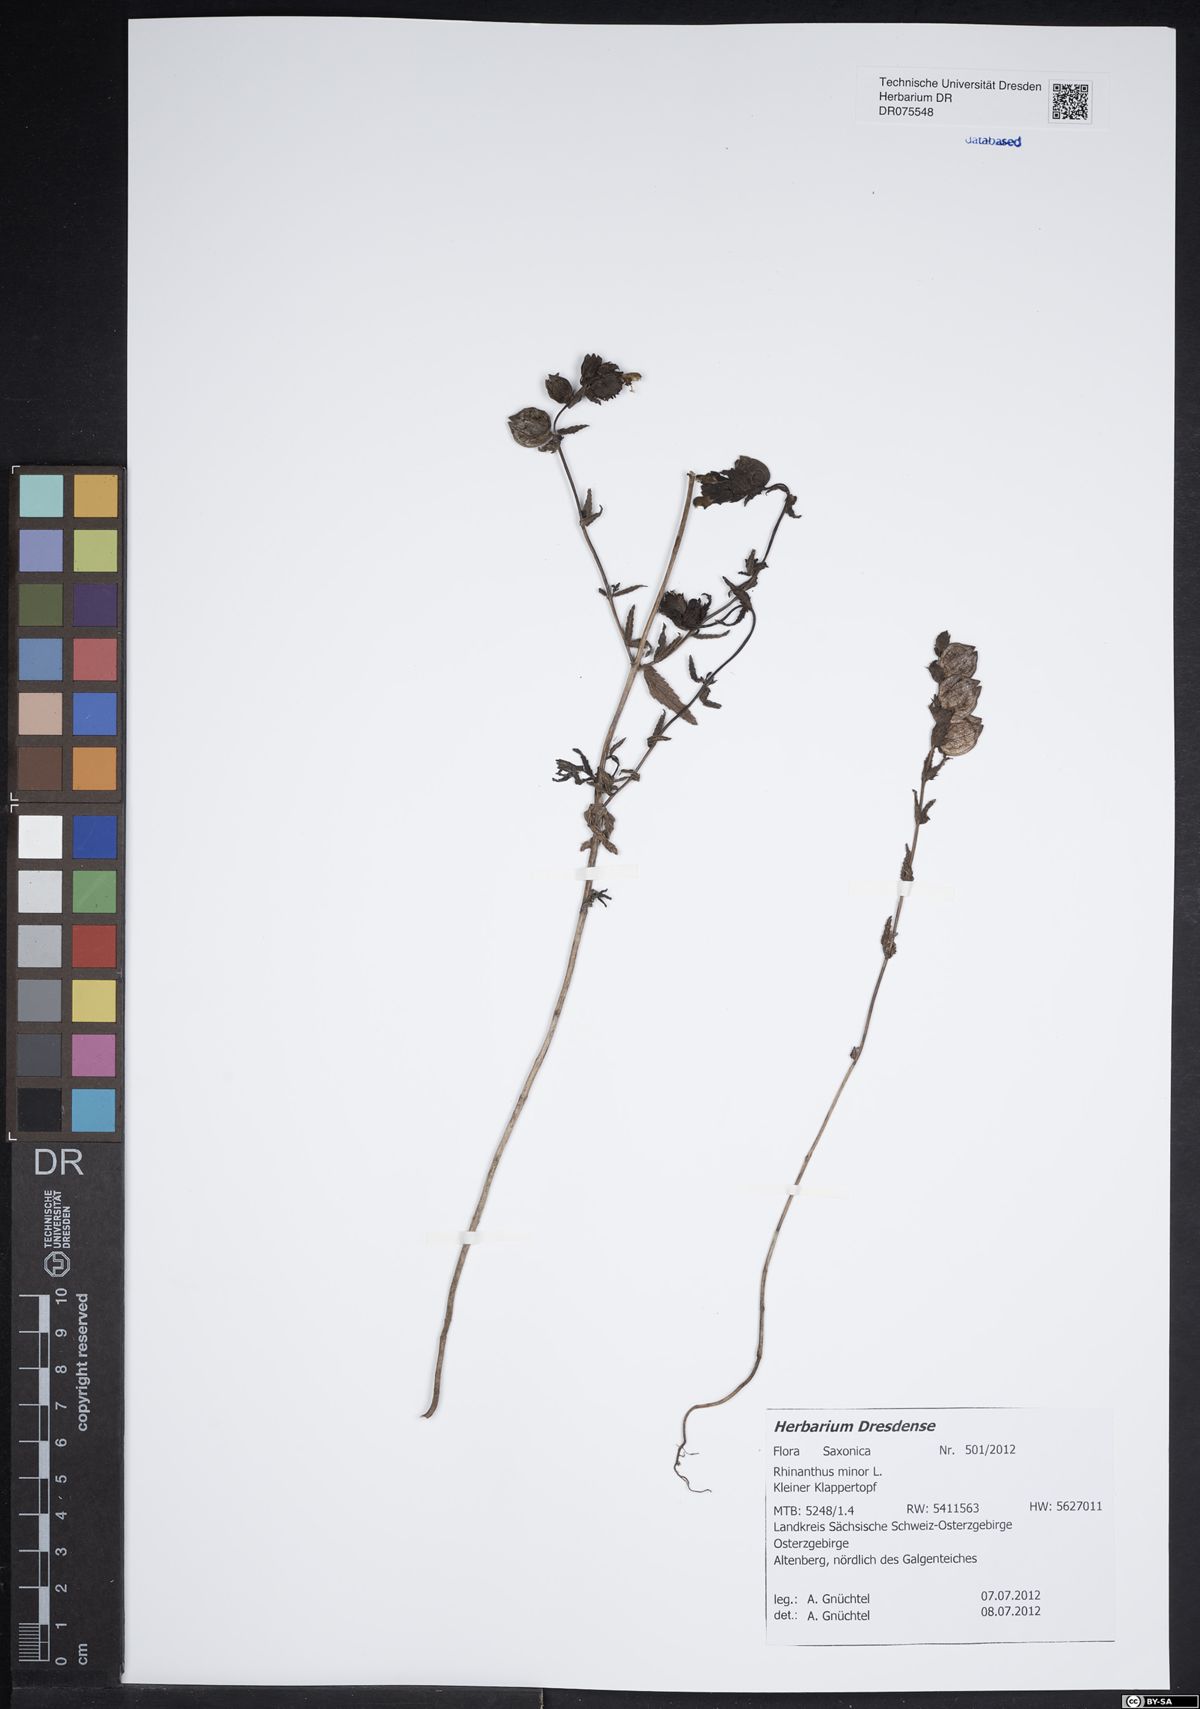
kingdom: Plantae
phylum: Tracheophyta
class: Magnoliopsida
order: Lamiales
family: Orobanchaceae
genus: Rhinanthus
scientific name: Rhinanthus minor
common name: Yellow-rattle
